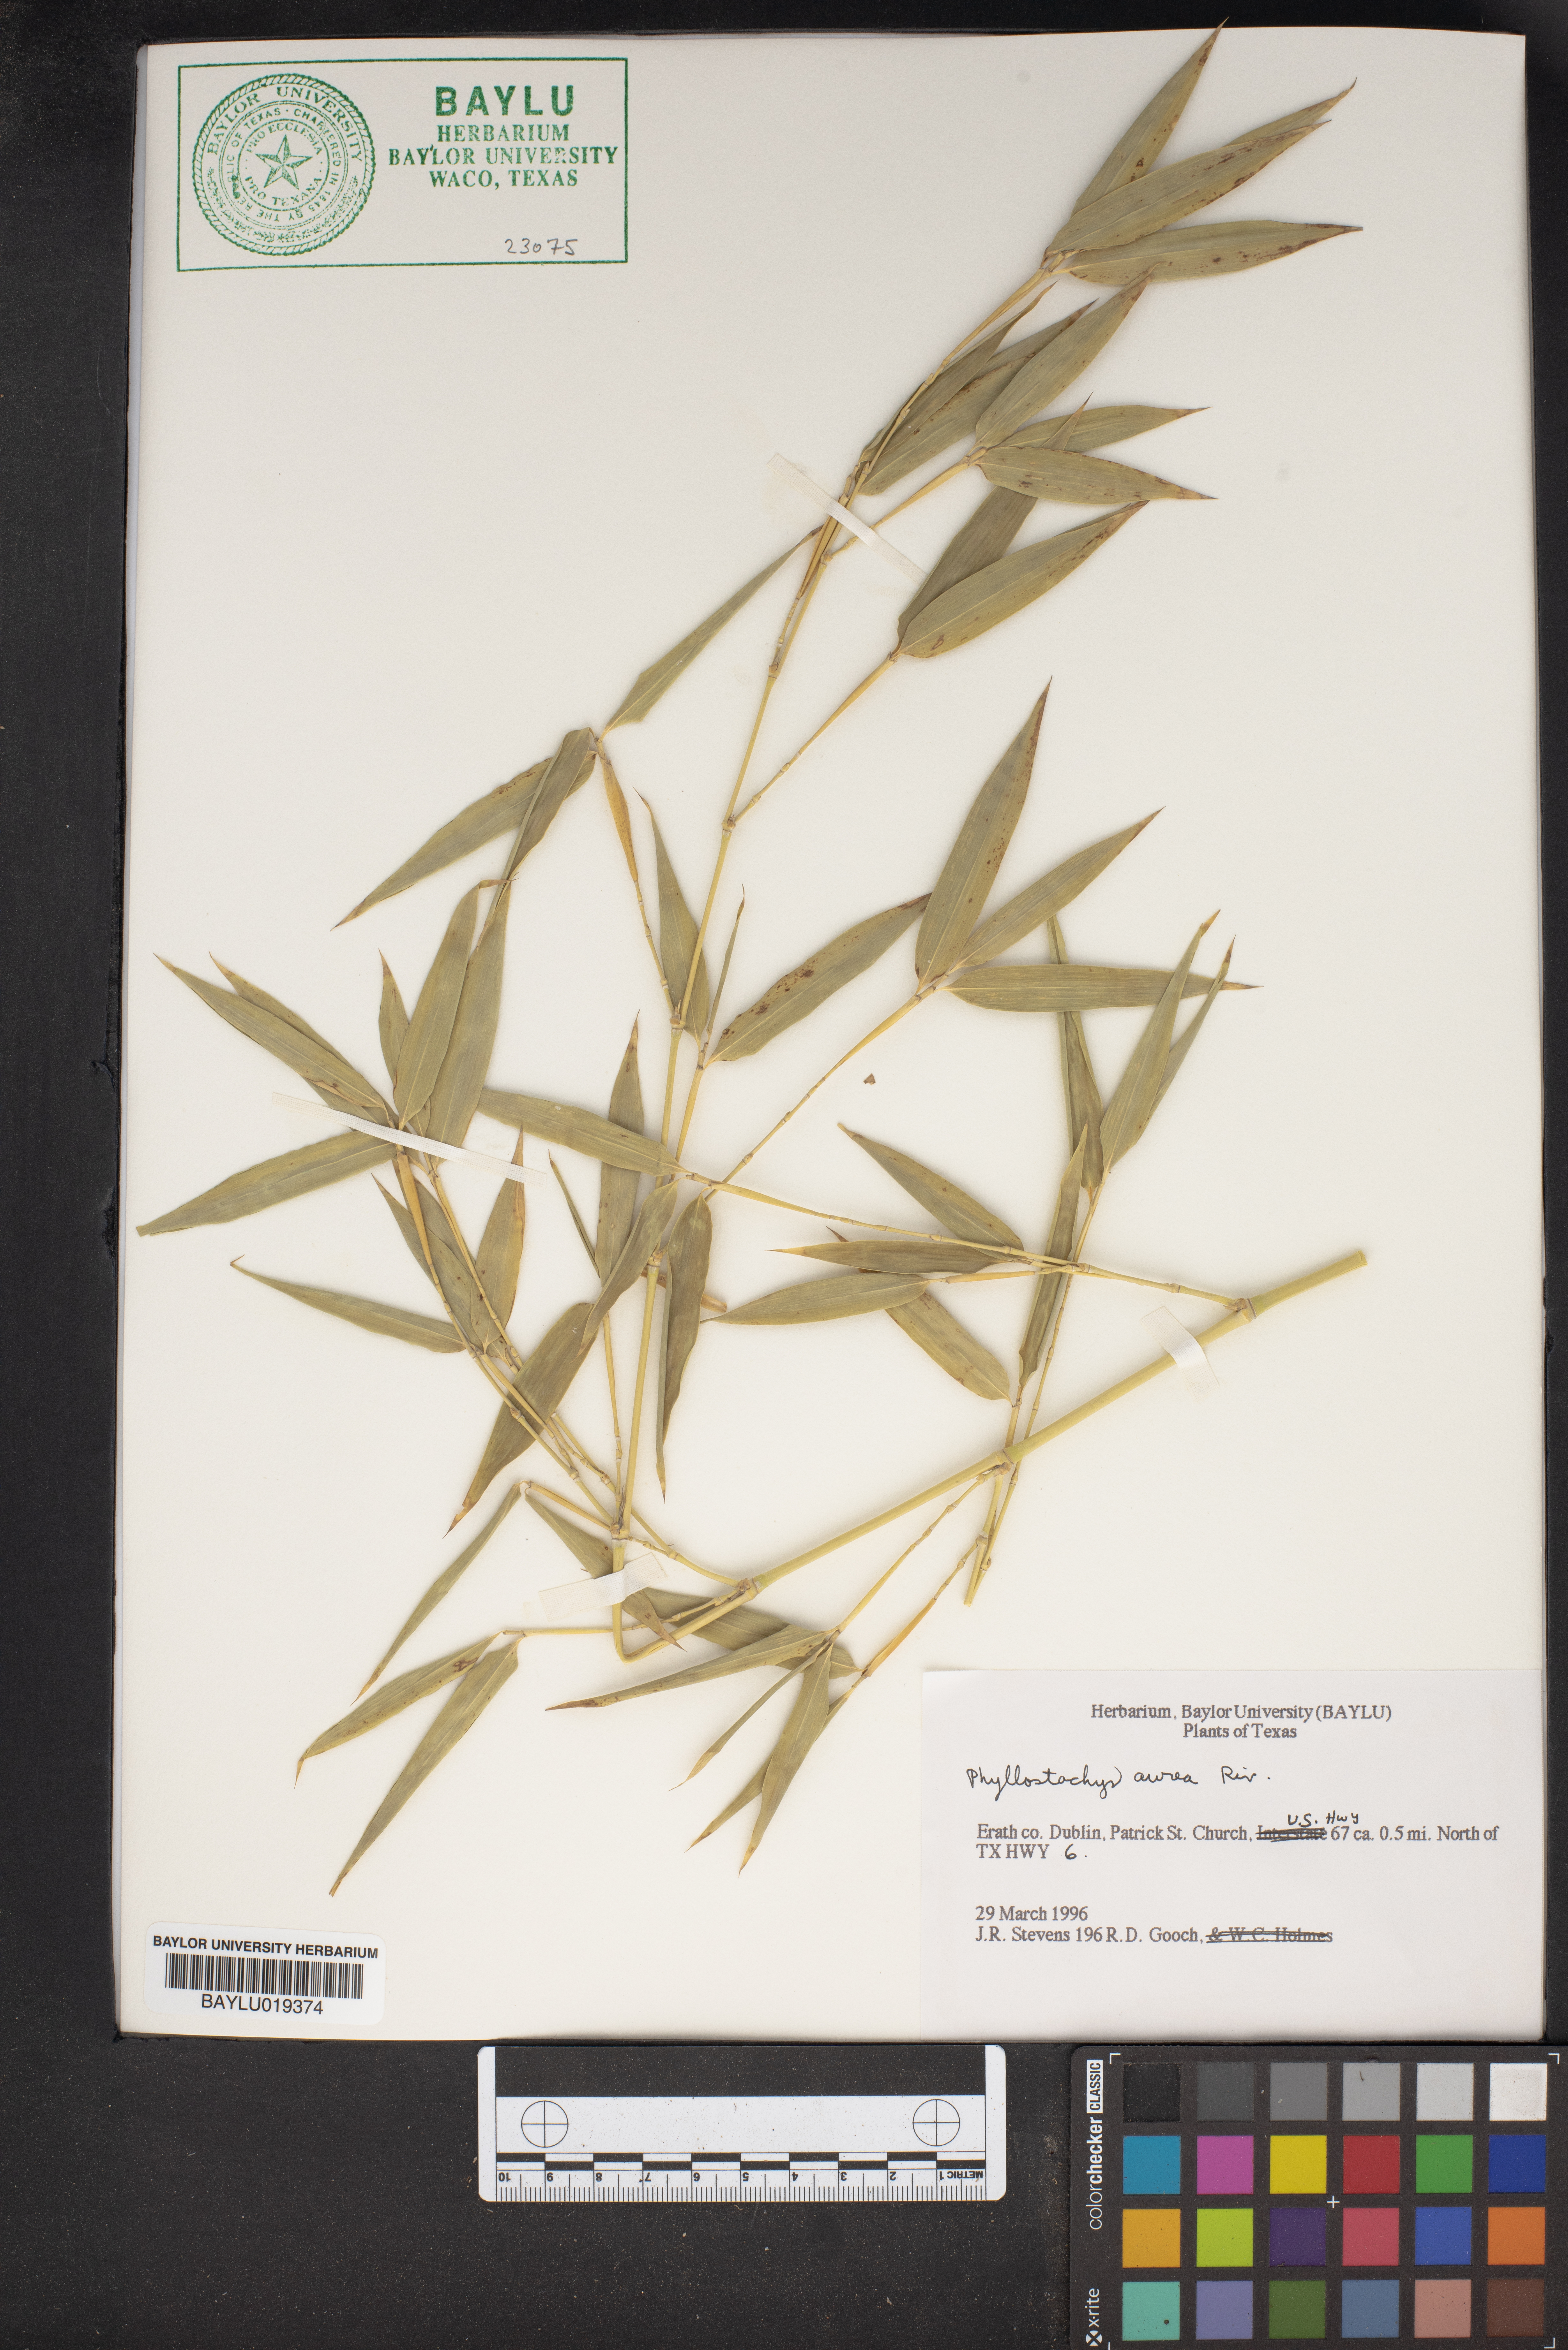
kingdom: Plantae
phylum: Tracheophyta
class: Liliopsida
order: Poales
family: Poaceae
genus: Phyllostachys
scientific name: Phyllostachys aurea
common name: Golden bamboo
